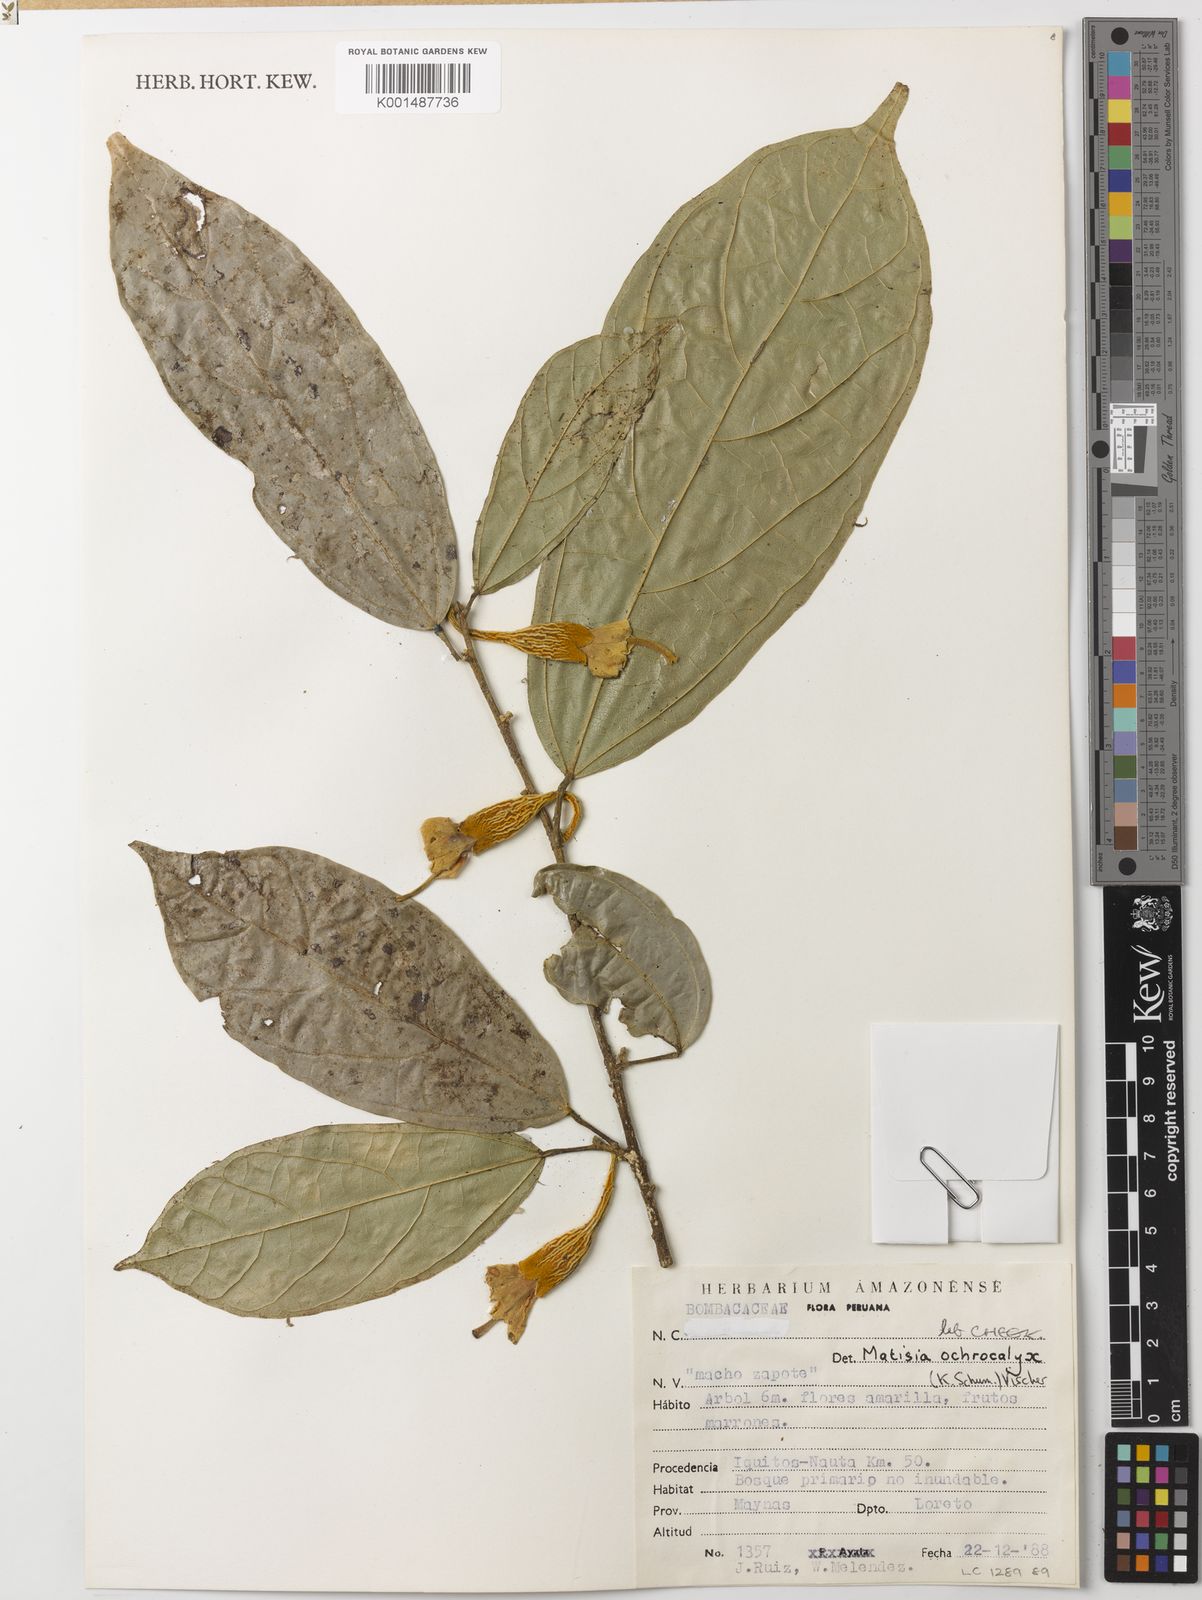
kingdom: Plantae
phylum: Tracheophyta
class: Magnoliopsida
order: Malvales
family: Malvaceae
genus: Matisia
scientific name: Matisia ochrocalyx
